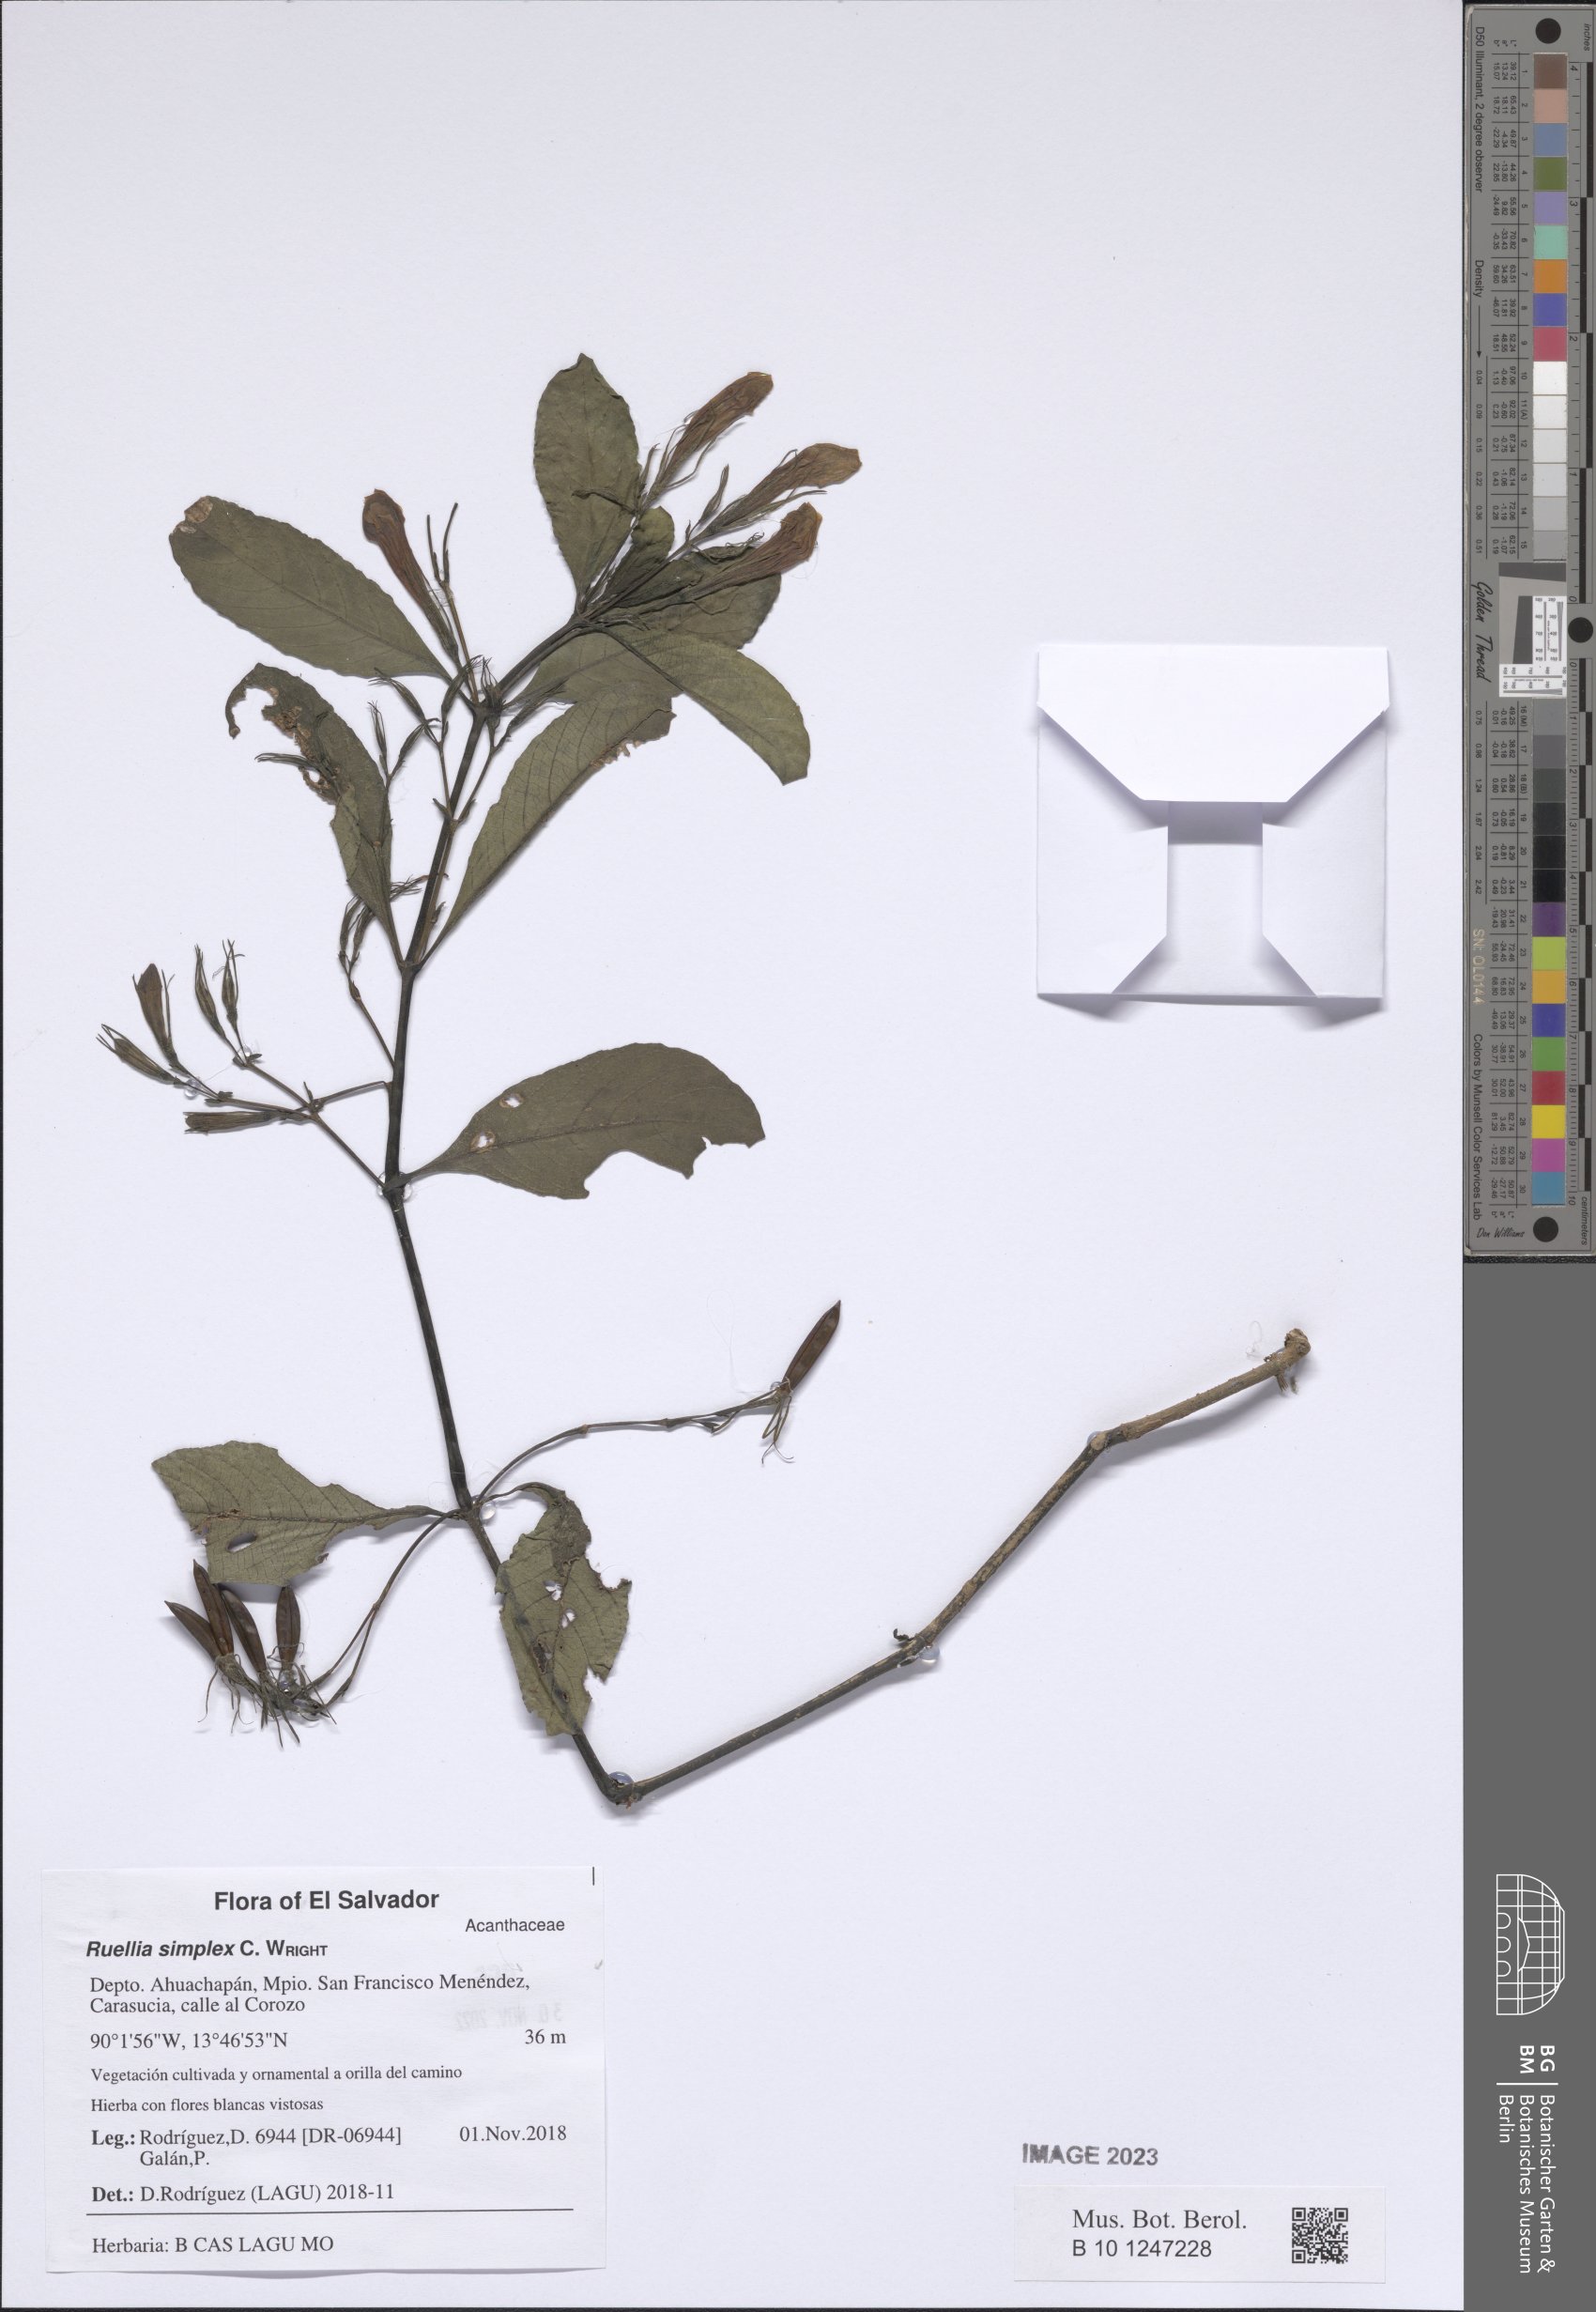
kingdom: Plantae
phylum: Tracheophyta
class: Magnoliopsida
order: Lamiales
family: Acanthaceae
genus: Ruellia
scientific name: Ruellia simplex
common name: Softseed wild petunia
